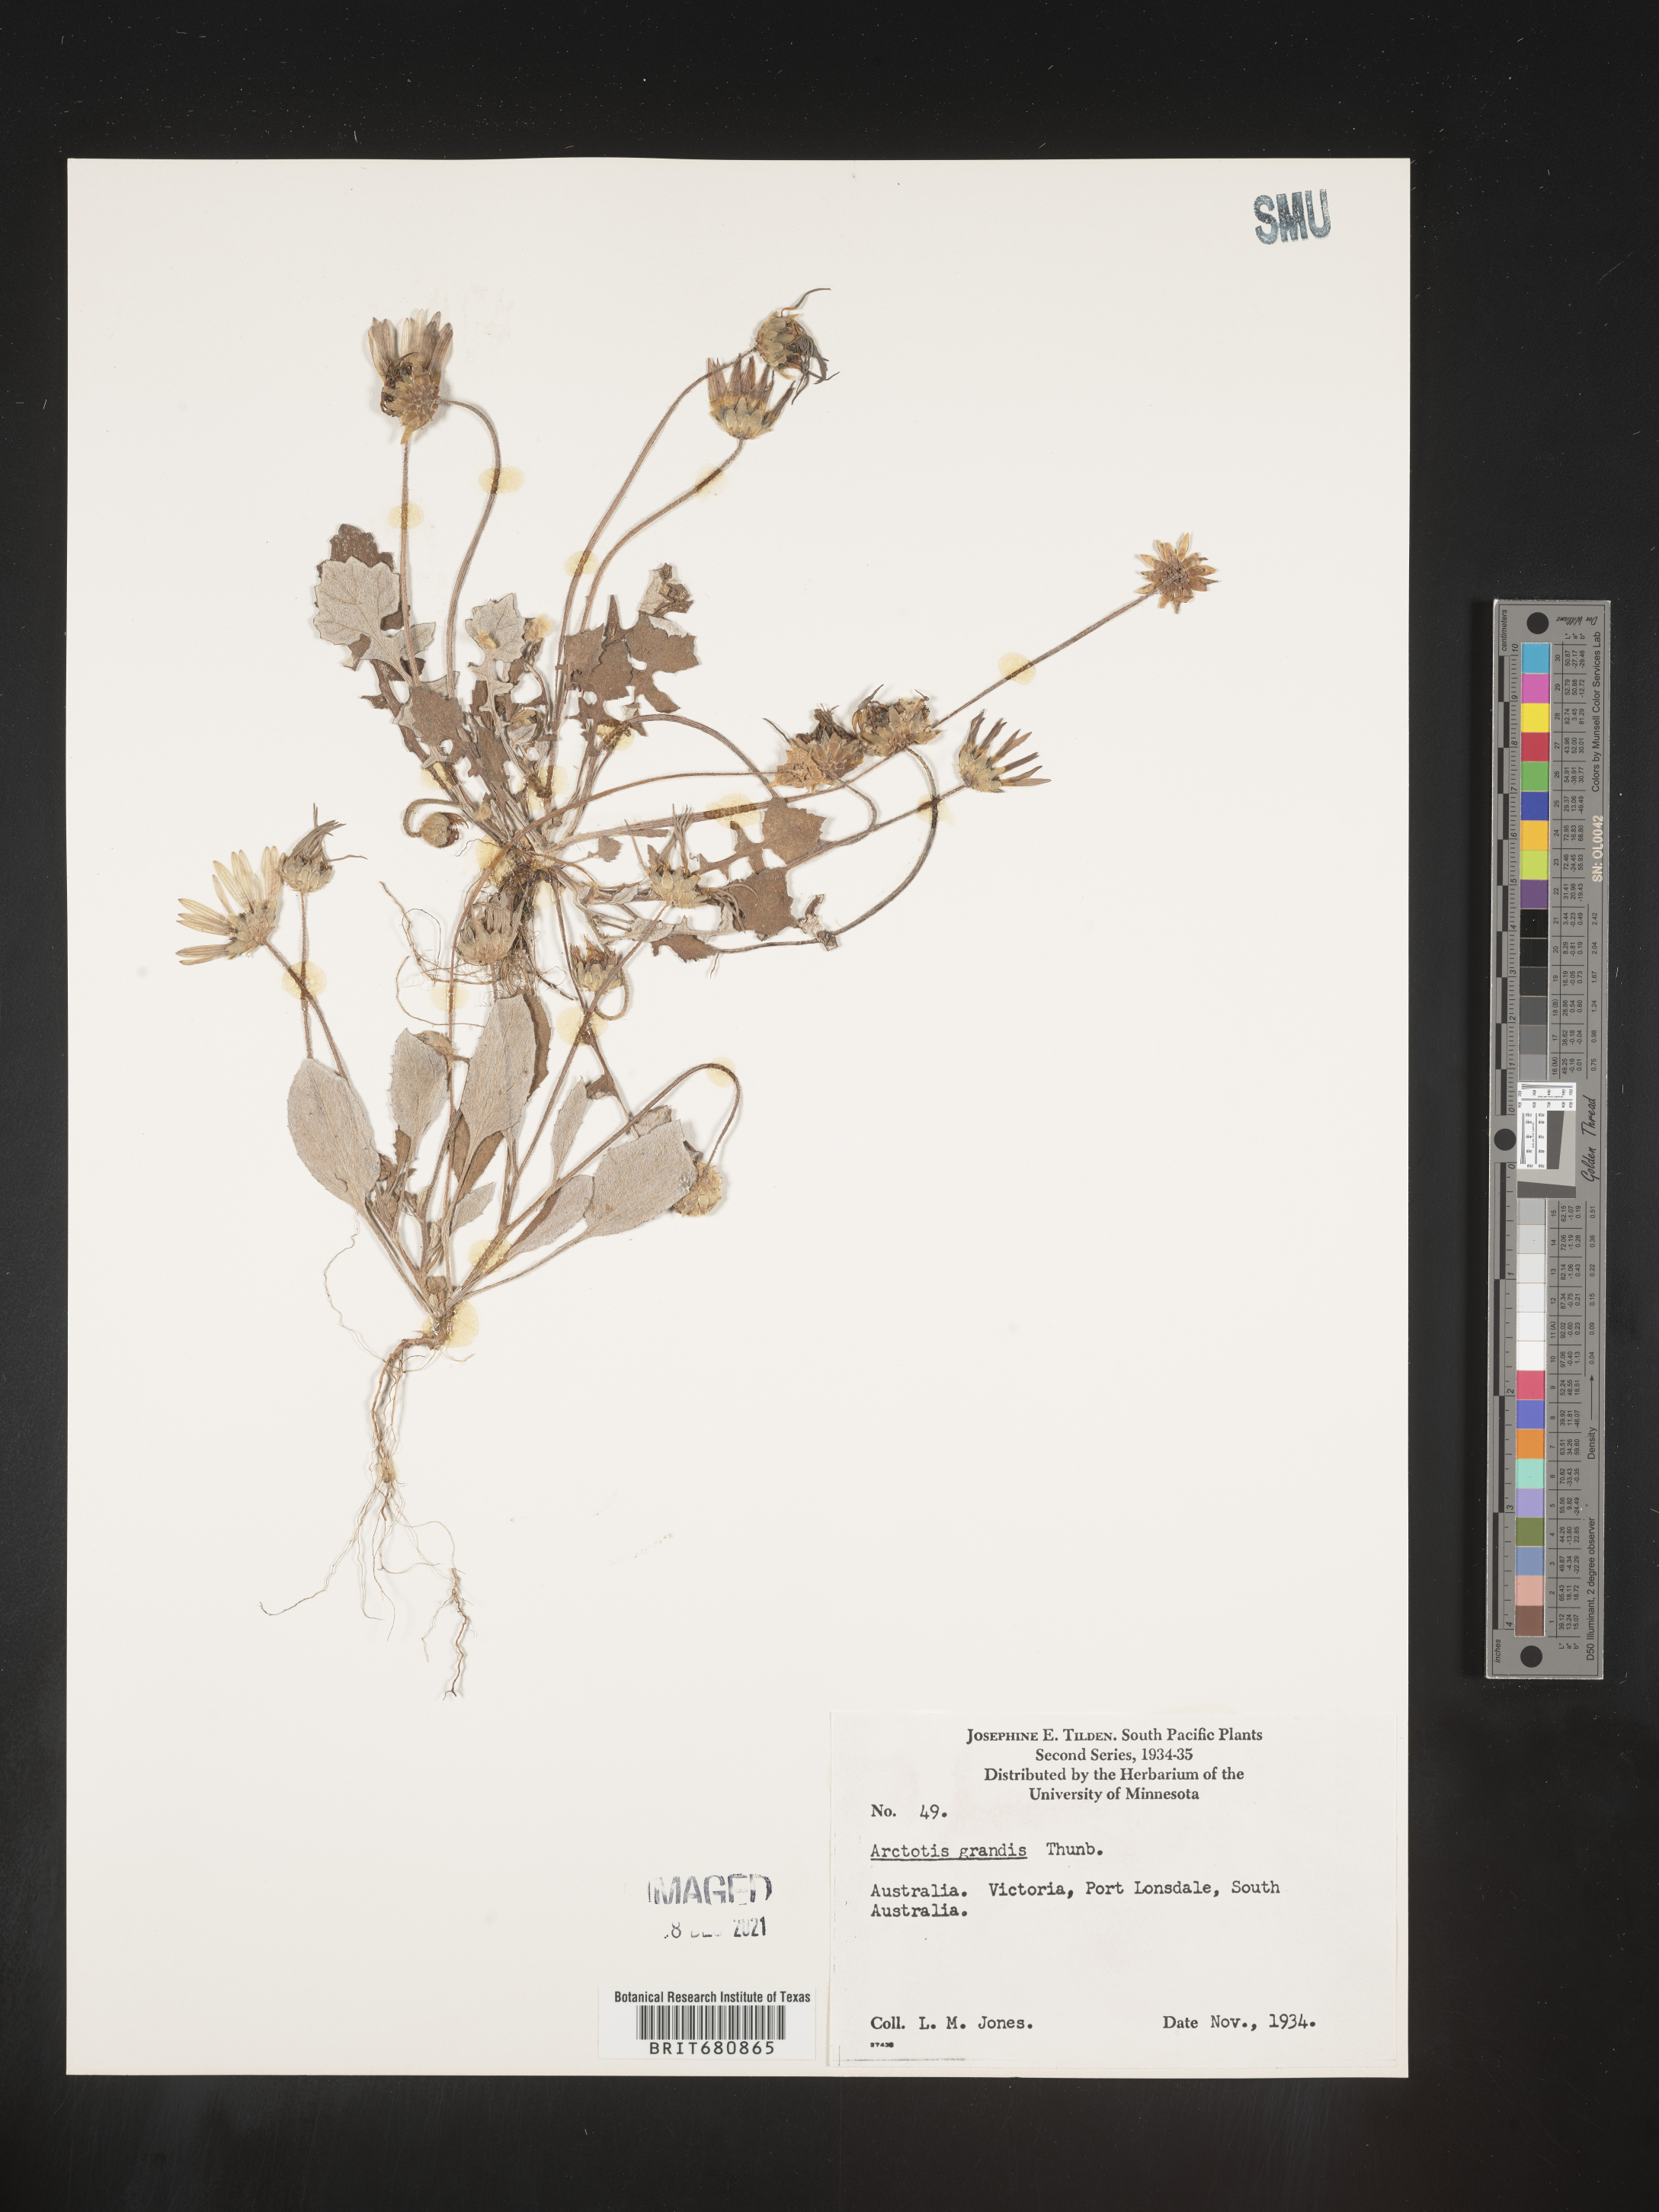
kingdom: Plantae
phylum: Tracheophyta
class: Magnoliopsida
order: Asterales
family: Asteraceae
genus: Arctotis
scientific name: Arctotis
